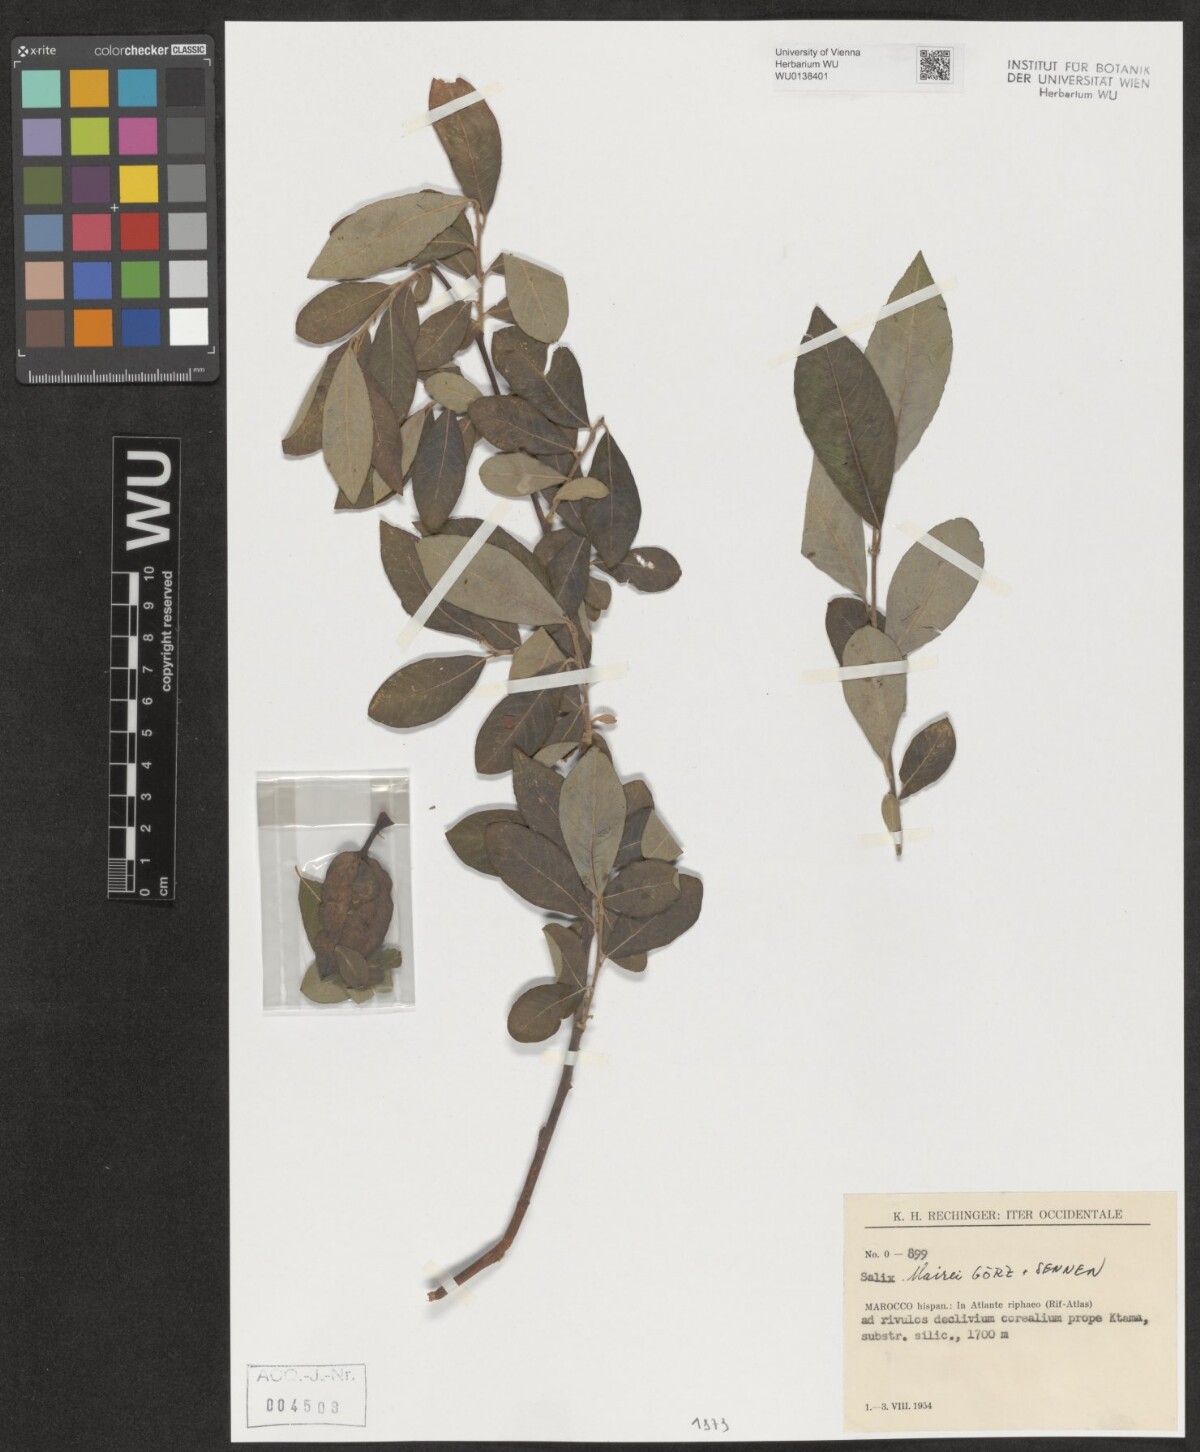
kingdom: Plantae
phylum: Tracheophyta
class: Magnoliopsida
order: Malpighiales
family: Salicaceae
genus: Salix
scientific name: Salix mairei
